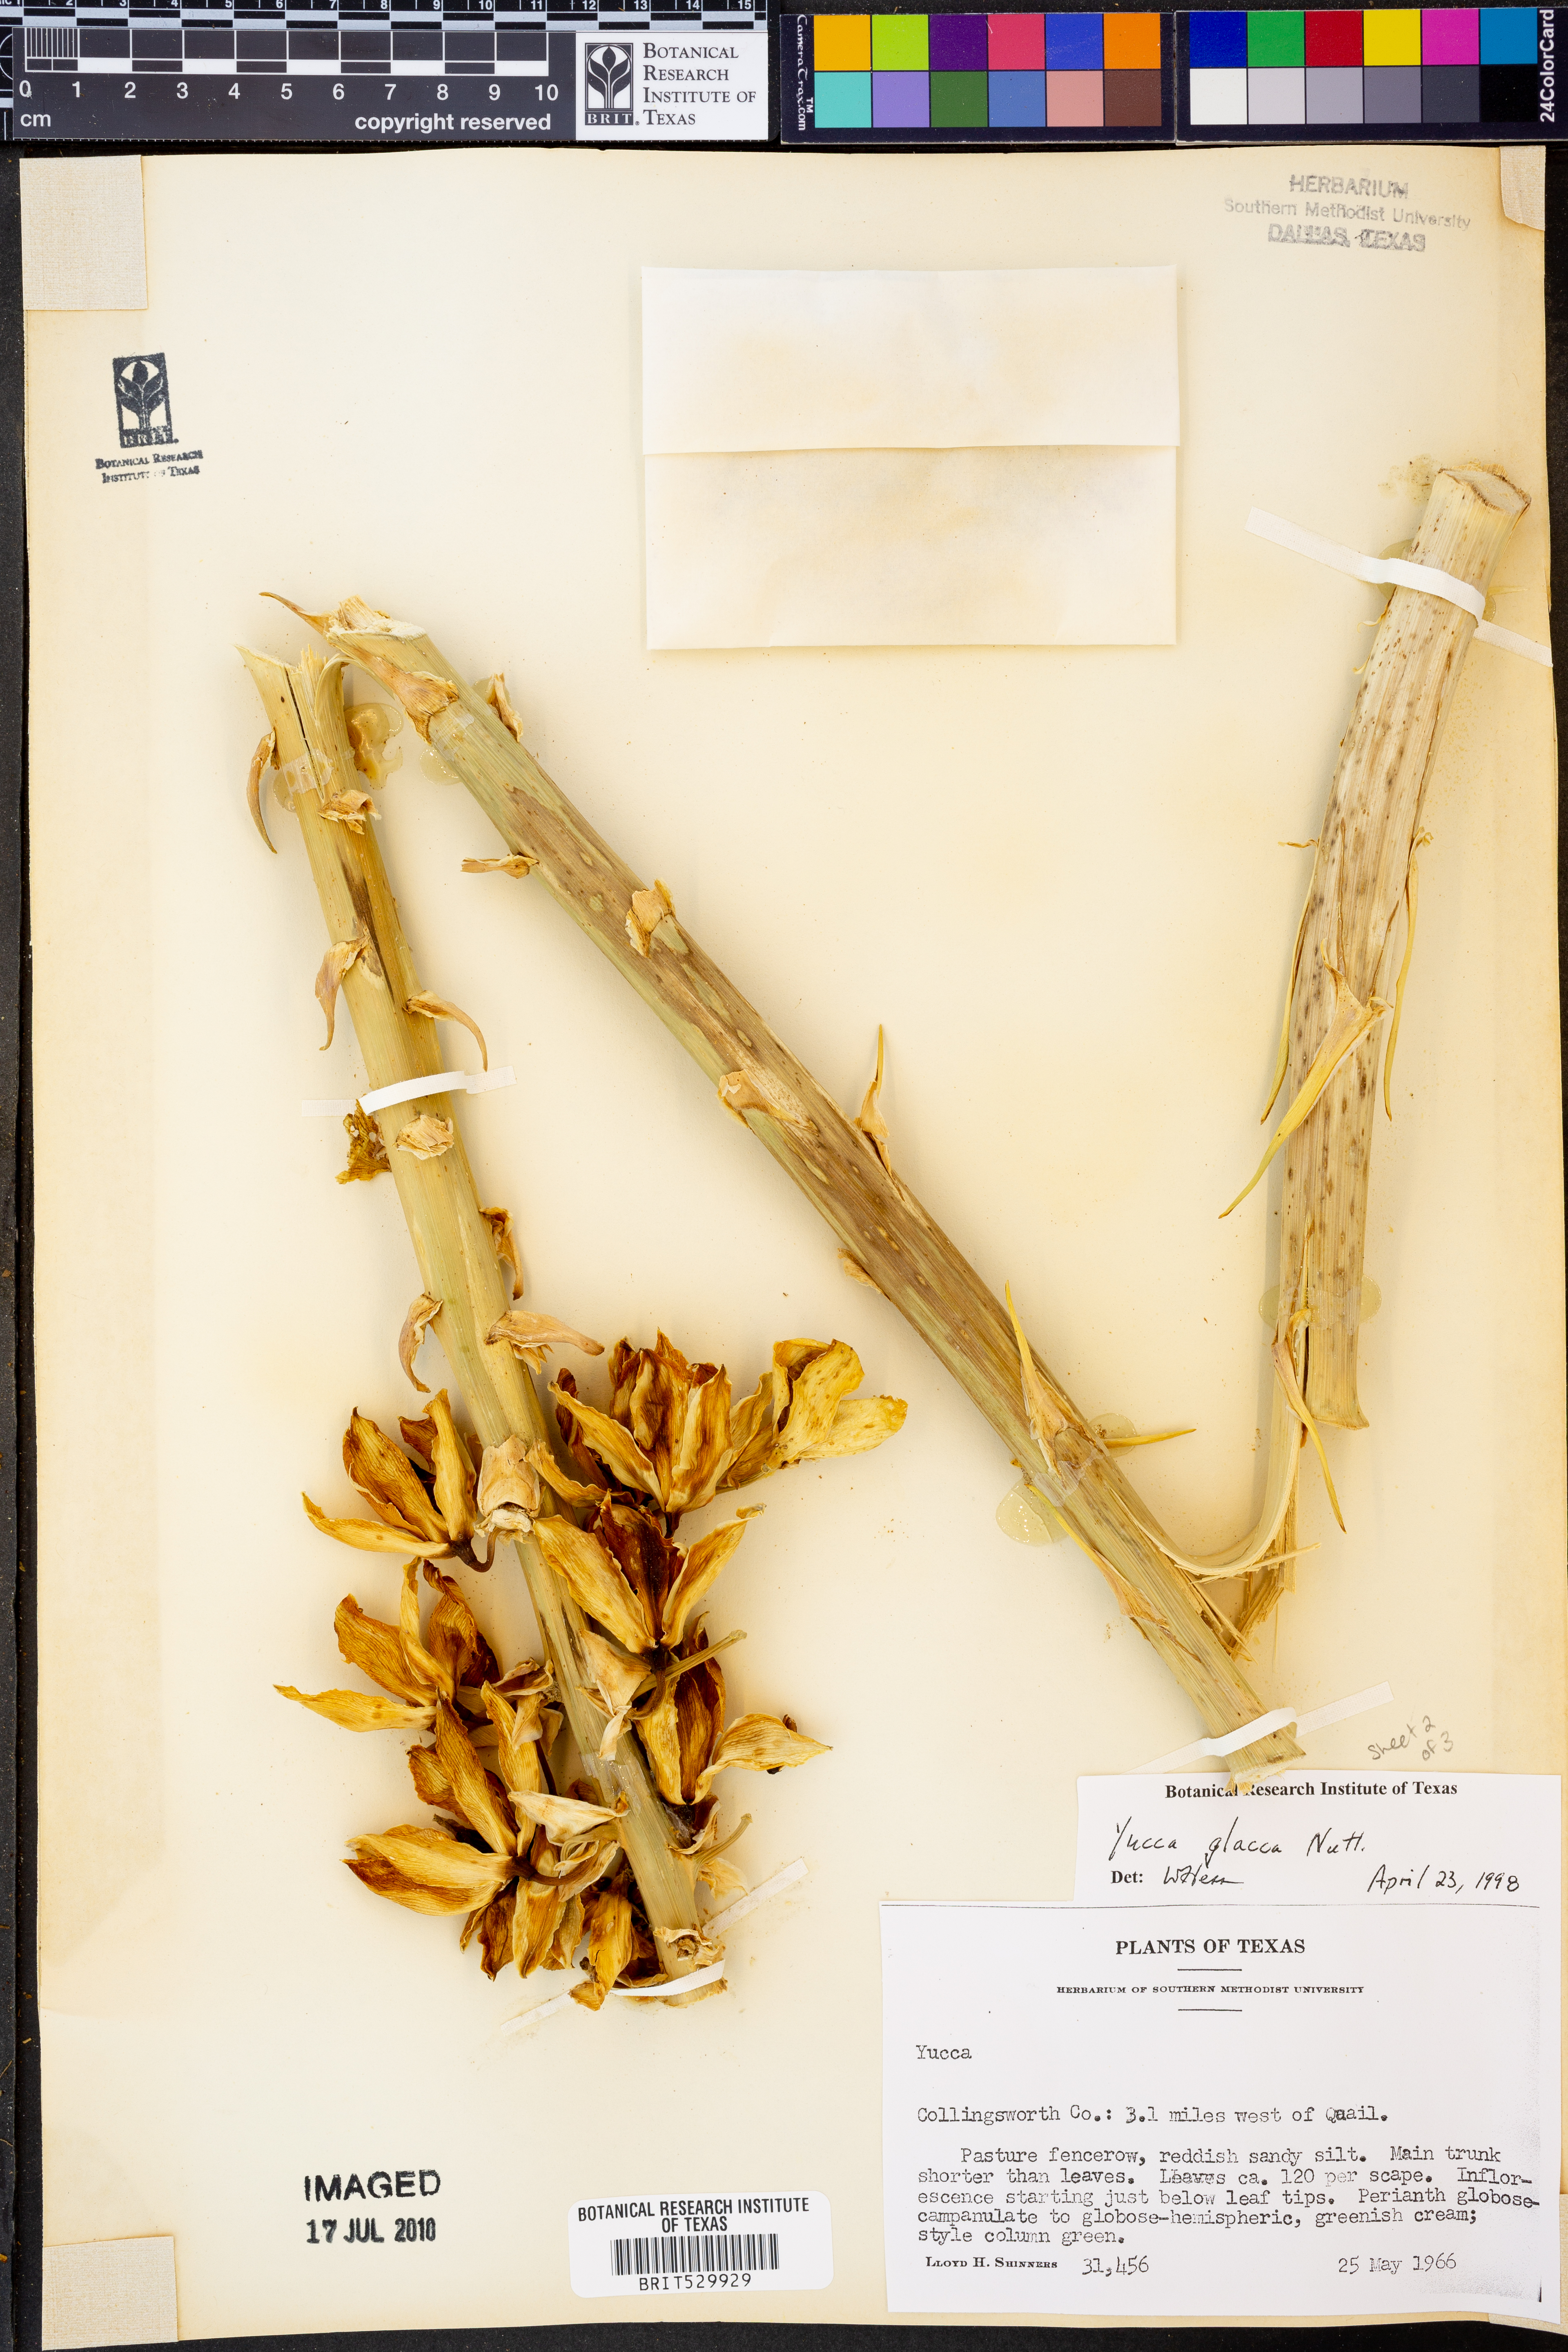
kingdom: Plantae
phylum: Tracheophyta
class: Liliopsida
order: Asparagales
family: Asparagaceae
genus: Yucca
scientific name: Yucca glauca
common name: Great plains yucca
